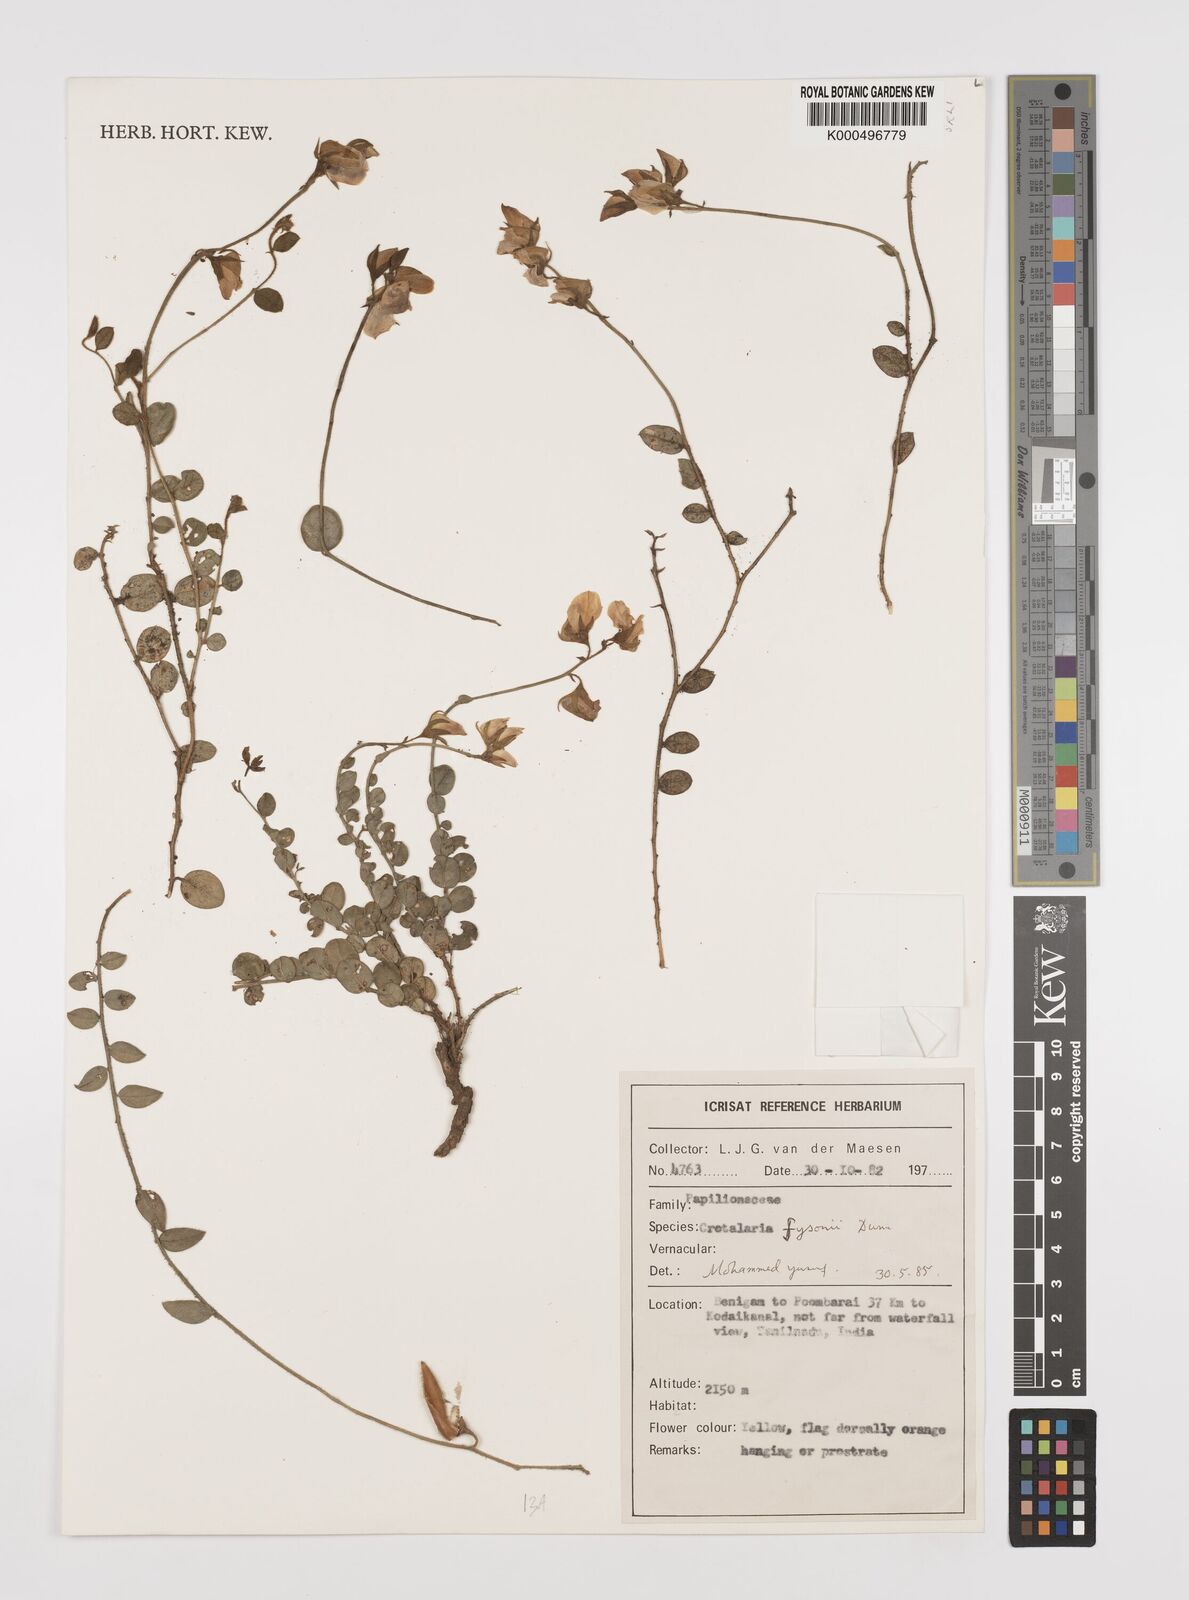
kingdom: Plantae
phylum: Tracheophyta
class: Magnoliopsida
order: Fabales
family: Fabaceae
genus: Crotalaria
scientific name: Crotalaria fysonii
